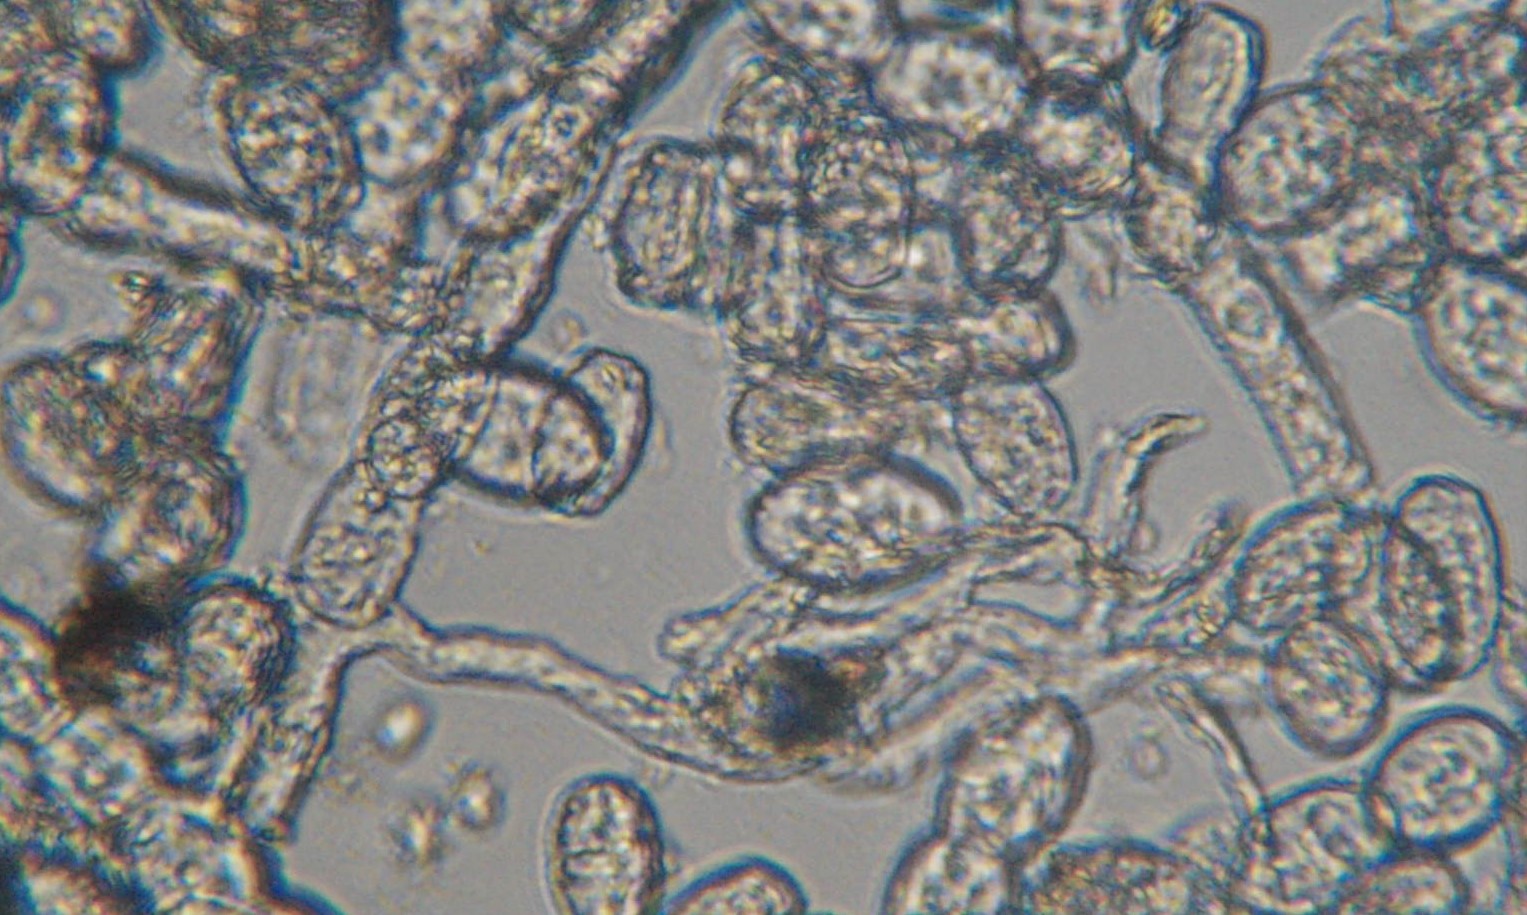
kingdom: Fungi
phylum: Ascomycota
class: Leotiomycetes
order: Helotiales
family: Erysiphaceae
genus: Podosphaera
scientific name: Podosphaera
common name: meldug
